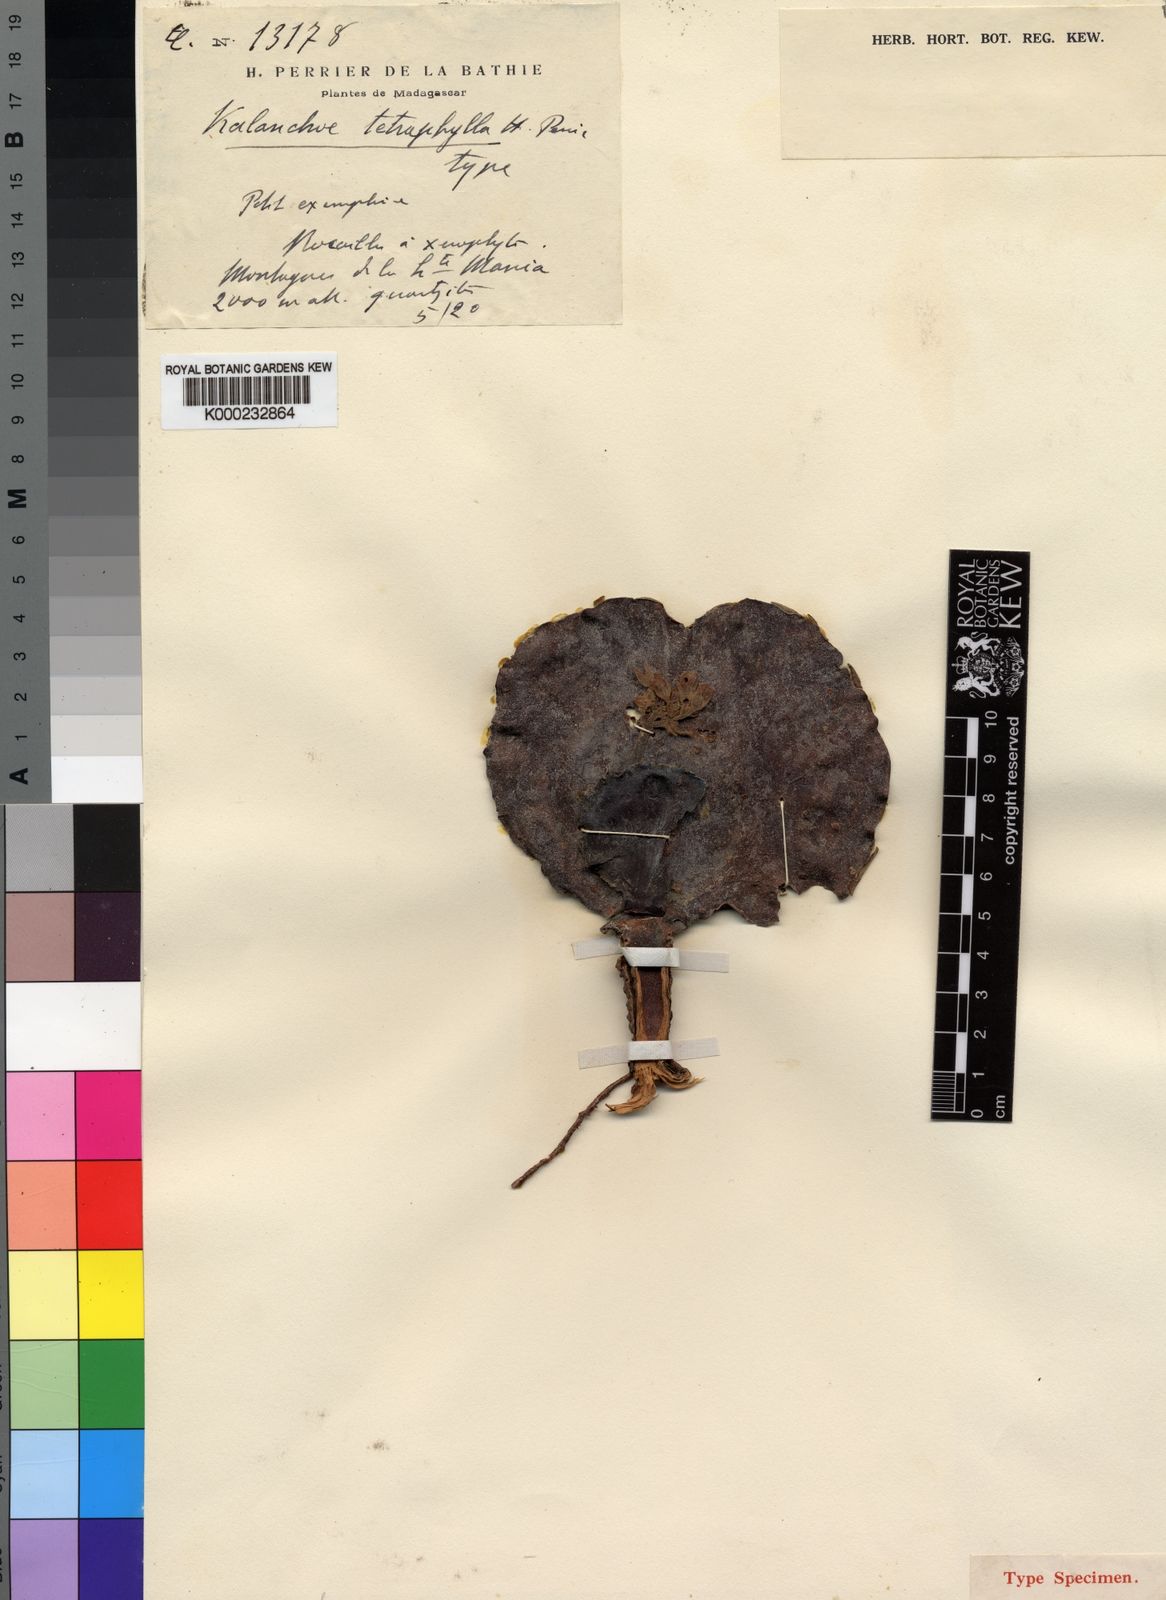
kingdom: Plantae
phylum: Tracheophyta
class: Magnoliopsida
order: Saxifragales
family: Crassulaceae
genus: Kalanchoe
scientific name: Kalanchoe tetraphylla
